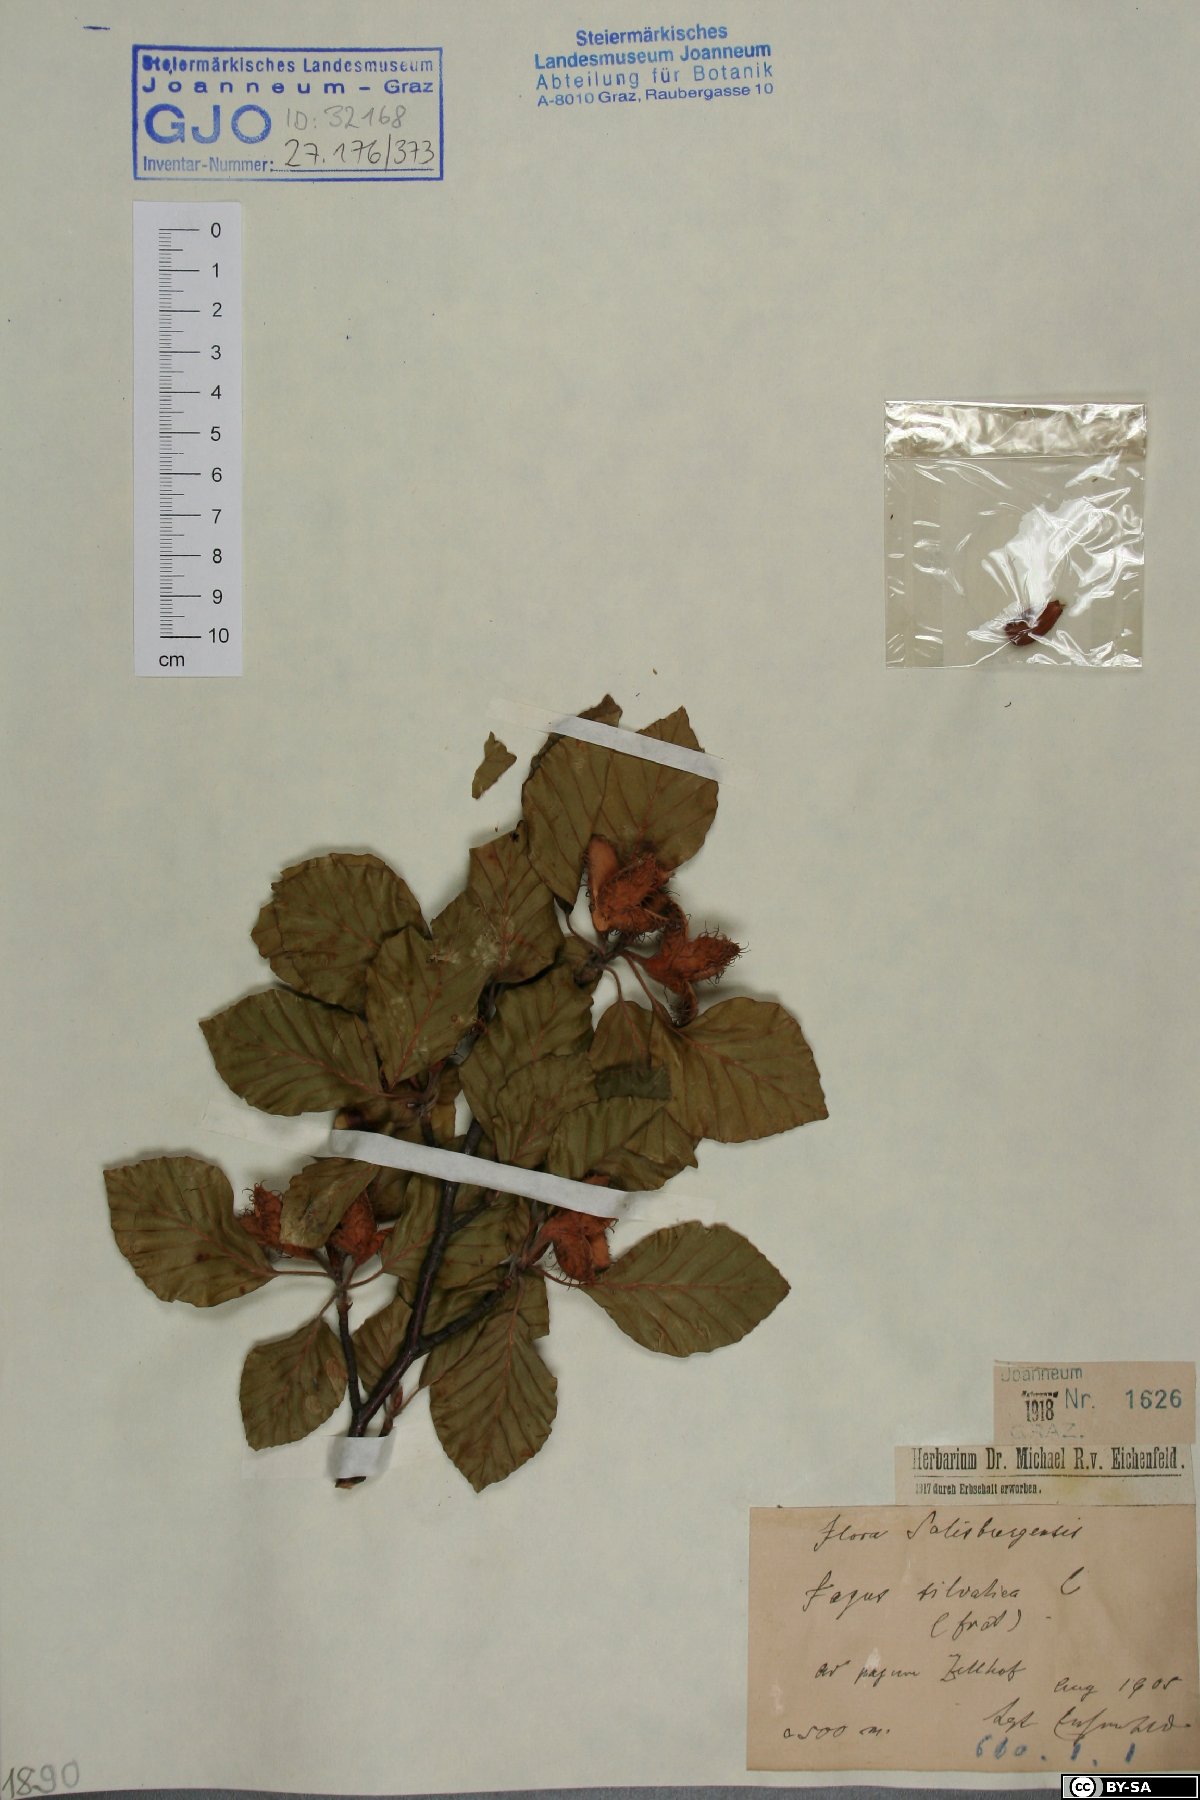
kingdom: Plantae
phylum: Tracheophyta
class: Magnoliopsida
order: Fagales
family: Fagaceae
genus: Fagus
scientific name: Fagus sylvatica
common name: Beech
